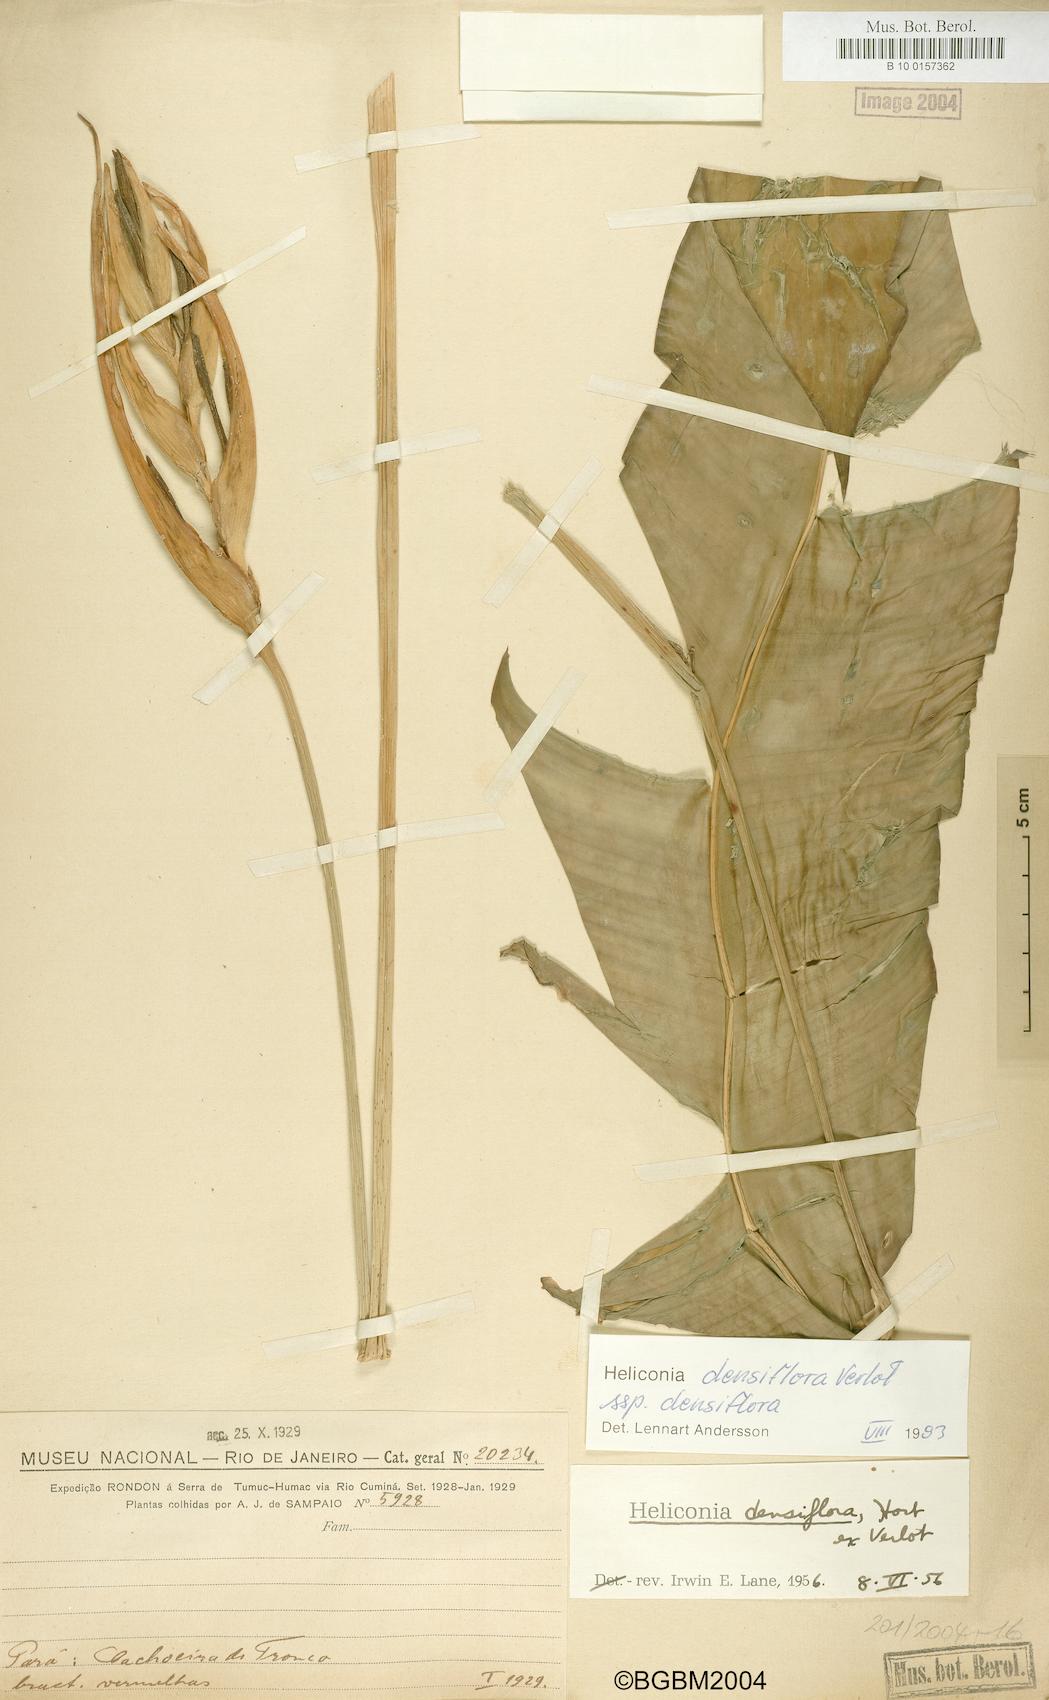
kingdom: Plantae
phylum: Tracheophyta
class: Liliopsida
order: Zingiberales
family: Heliconiaceae
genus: Heliconia
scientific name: Heliconia densiflora
